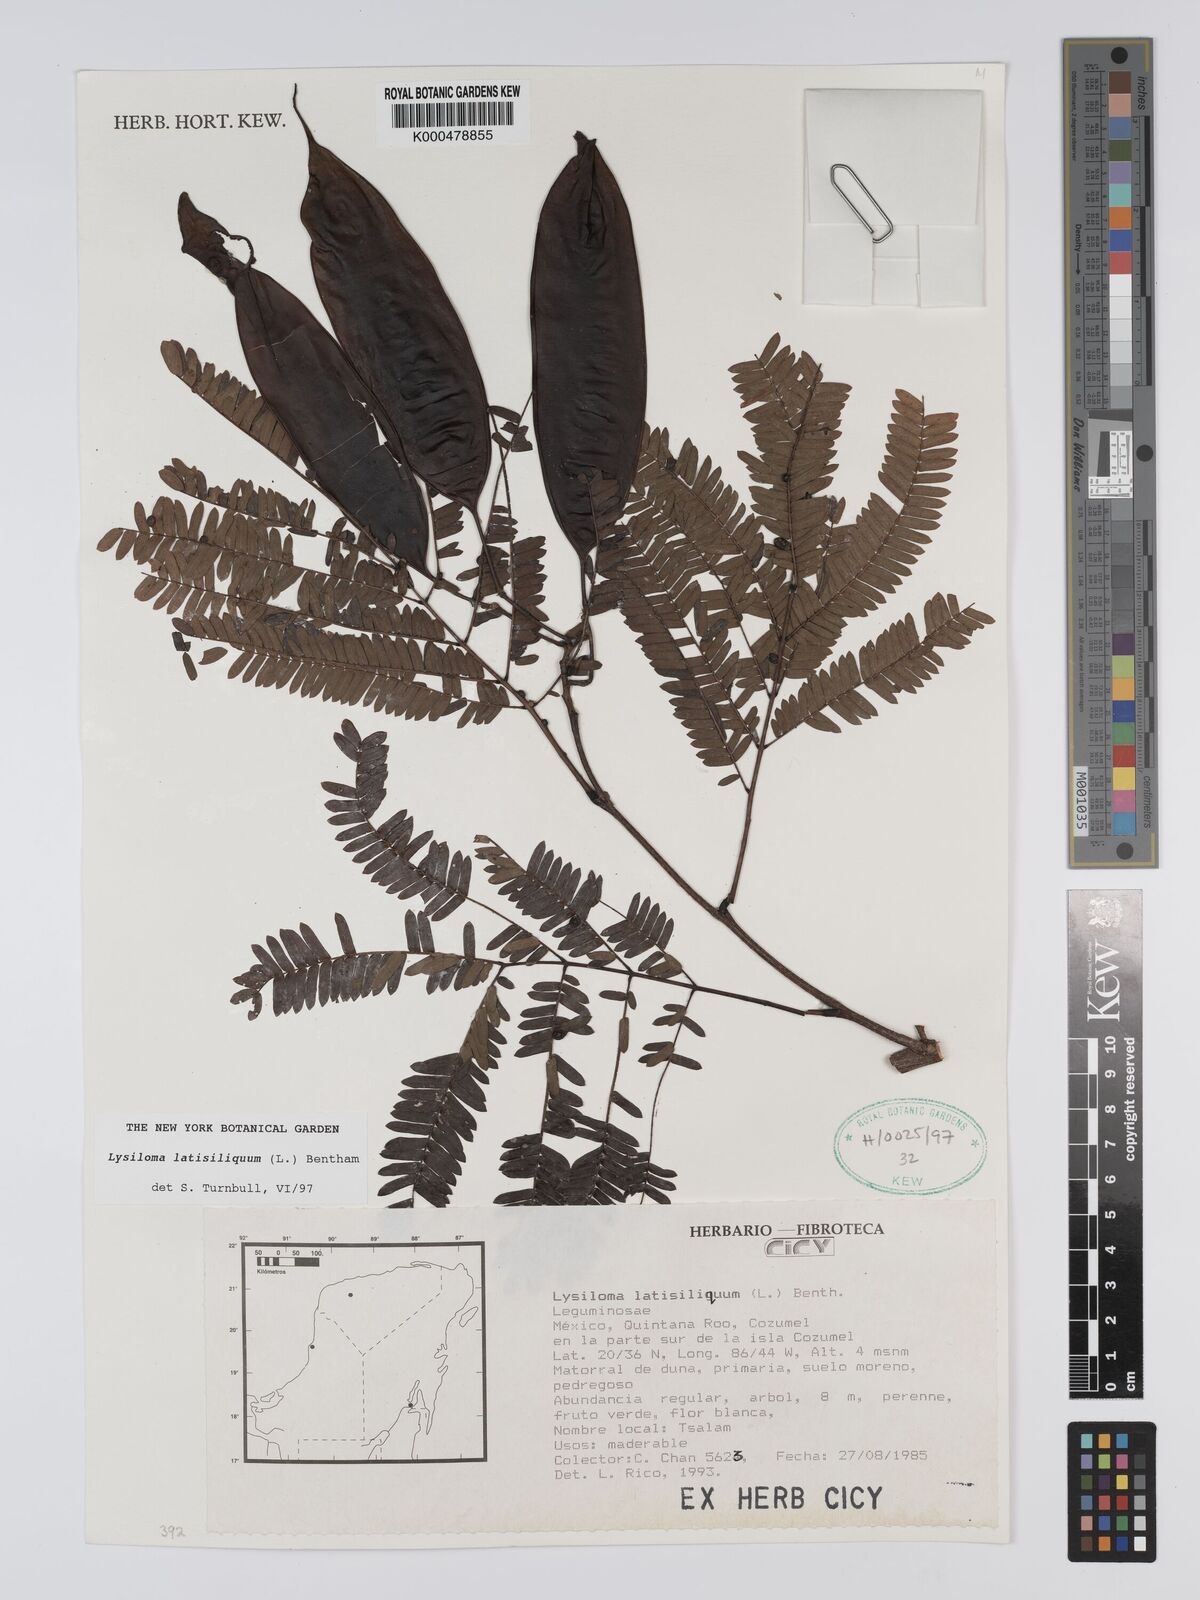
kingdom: Plantae
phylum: Tracheophyta
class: Magnoliopsida
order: Fabales
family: Fabaceae
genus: Lysiloma
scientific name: Lysiloma latisiliquum
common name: Wild tamarind
